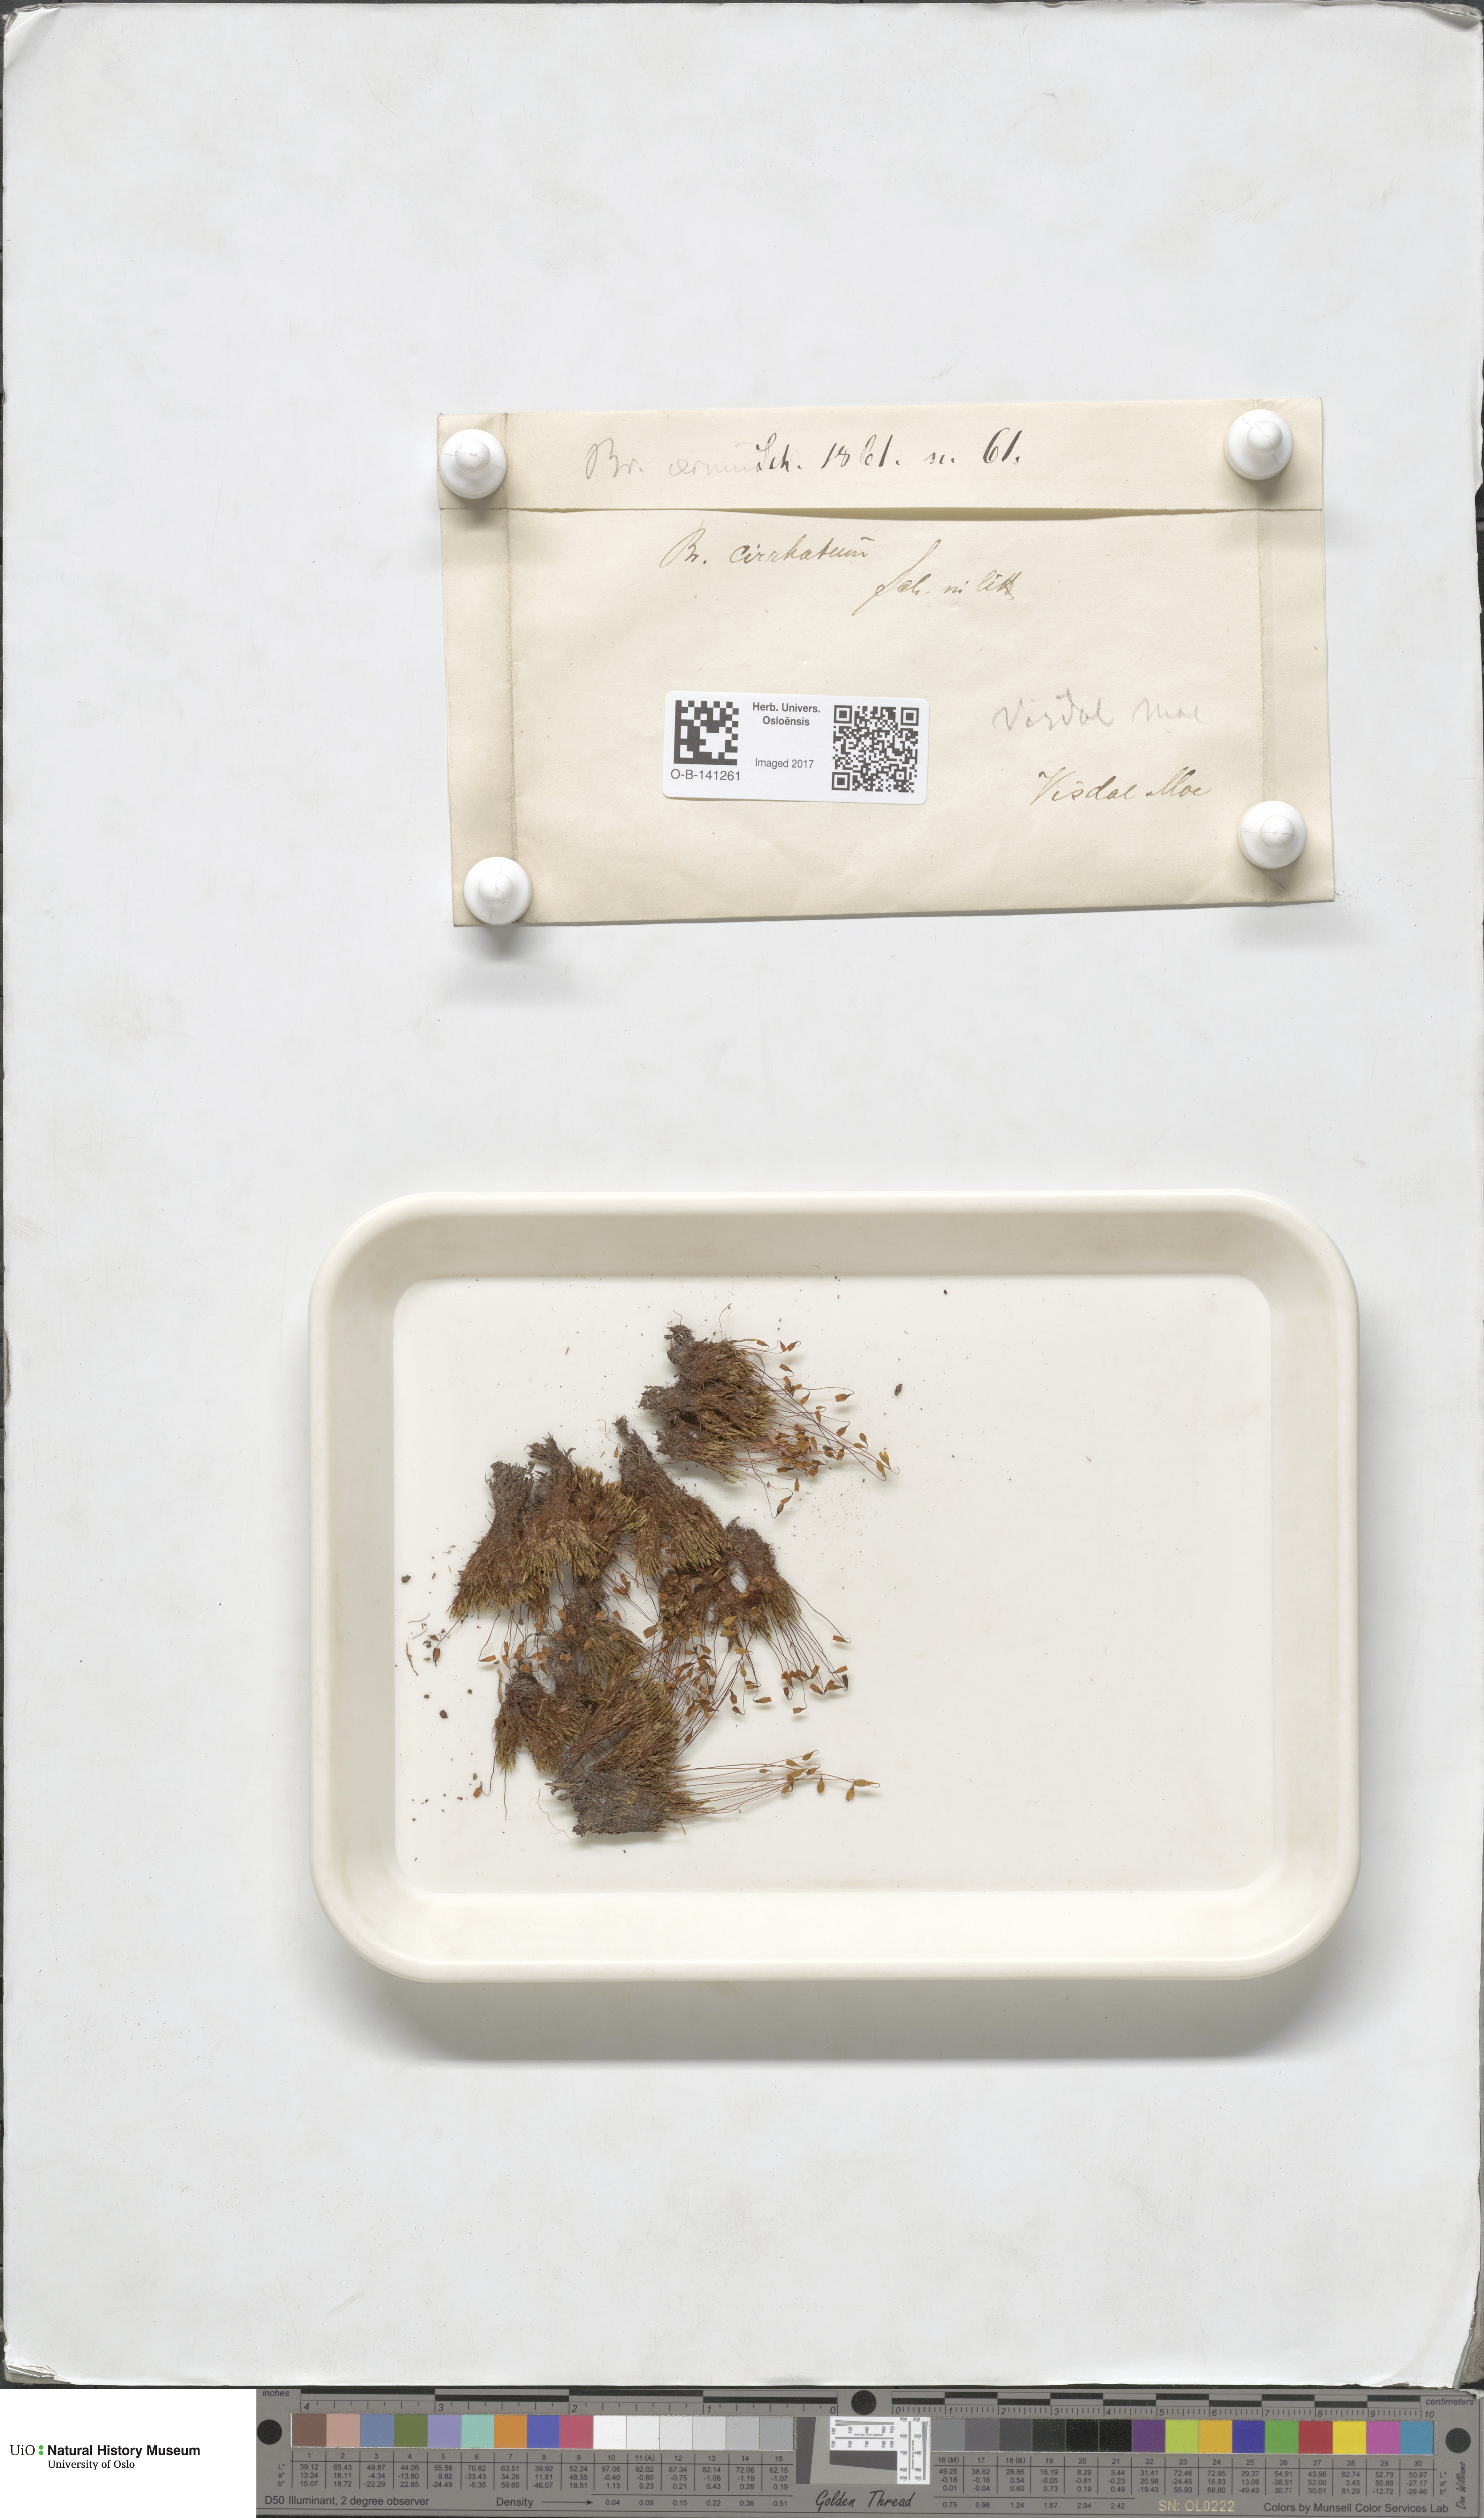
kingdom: Plantae
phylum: Bryophyta
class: Bryopsida
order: Bryales
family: Bryaceae
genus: Ptychostomum
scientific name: Ptychostomum pallescens
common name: Tall-clustered thread-moss
